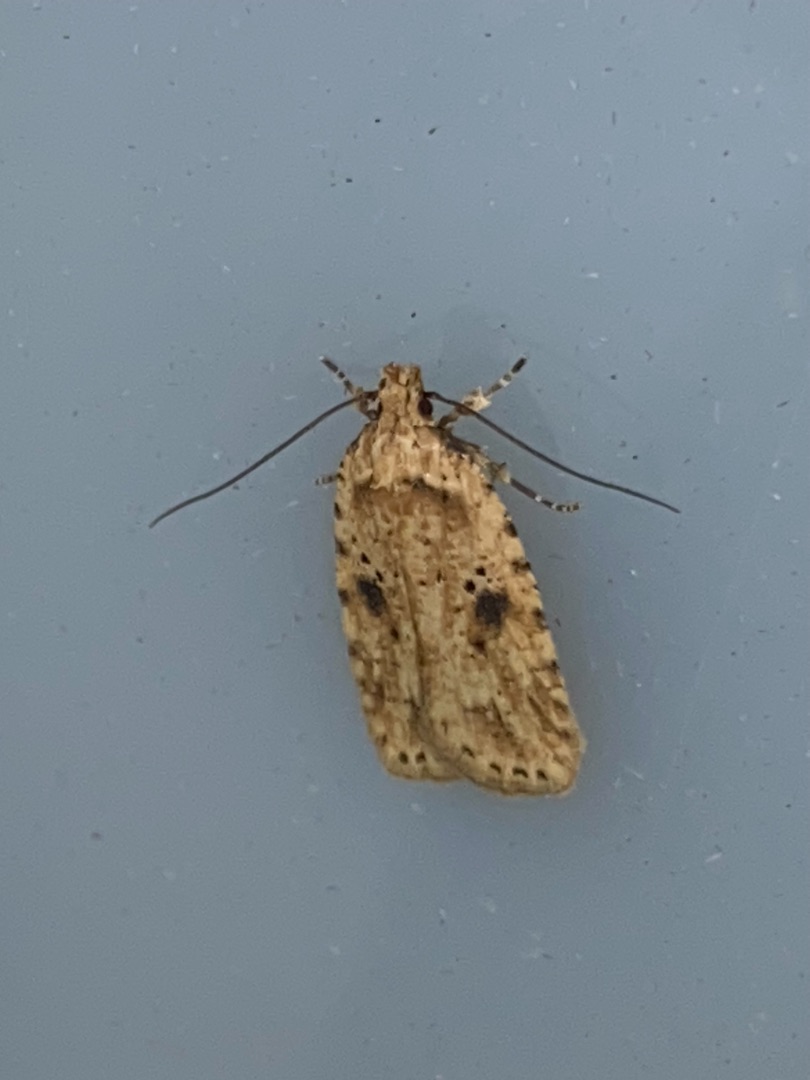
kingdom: Animalia
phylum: Arthropoda
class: Insecta
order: Lepidoptera
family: Depressariidae
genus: Agonopterix
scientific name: Agonopterix arenella
